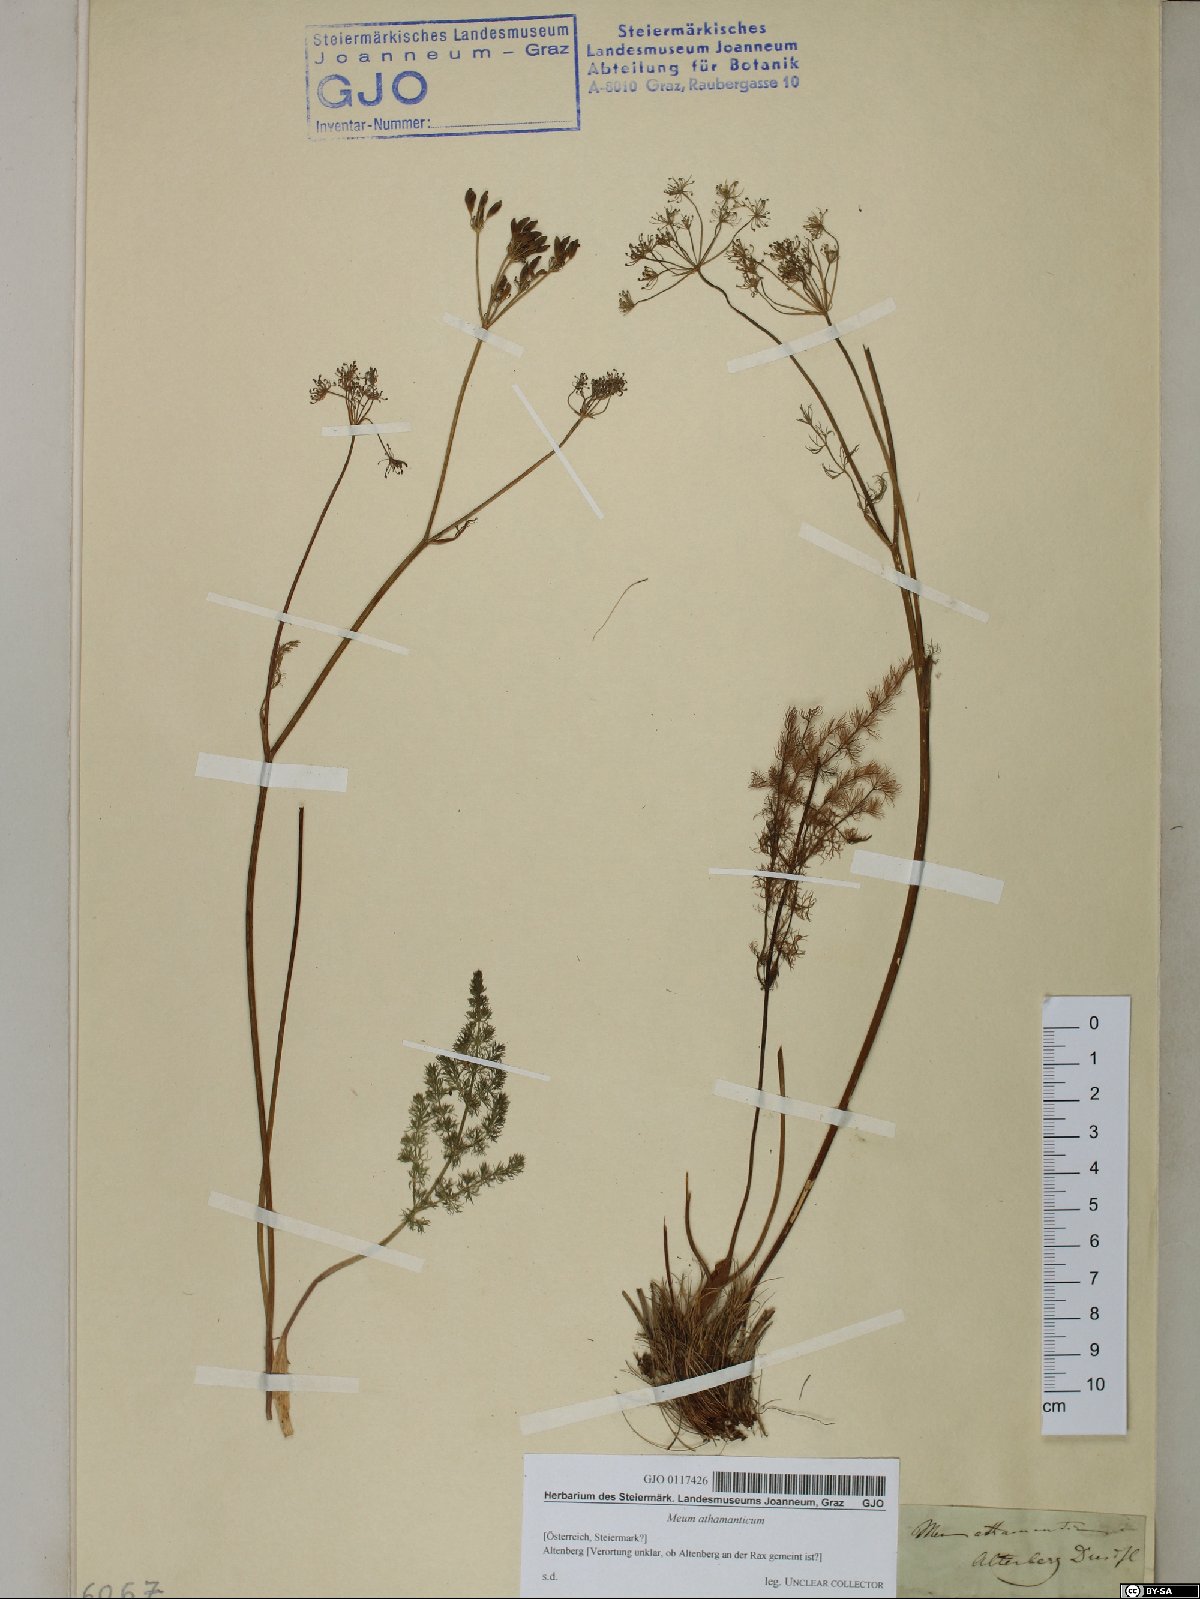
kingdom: Plantae
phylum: Tracheophyta
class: Magnoliopsida
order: Apiales
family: Apiaceae
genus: Meum
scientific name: Meum athamanticum
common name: Spignel
